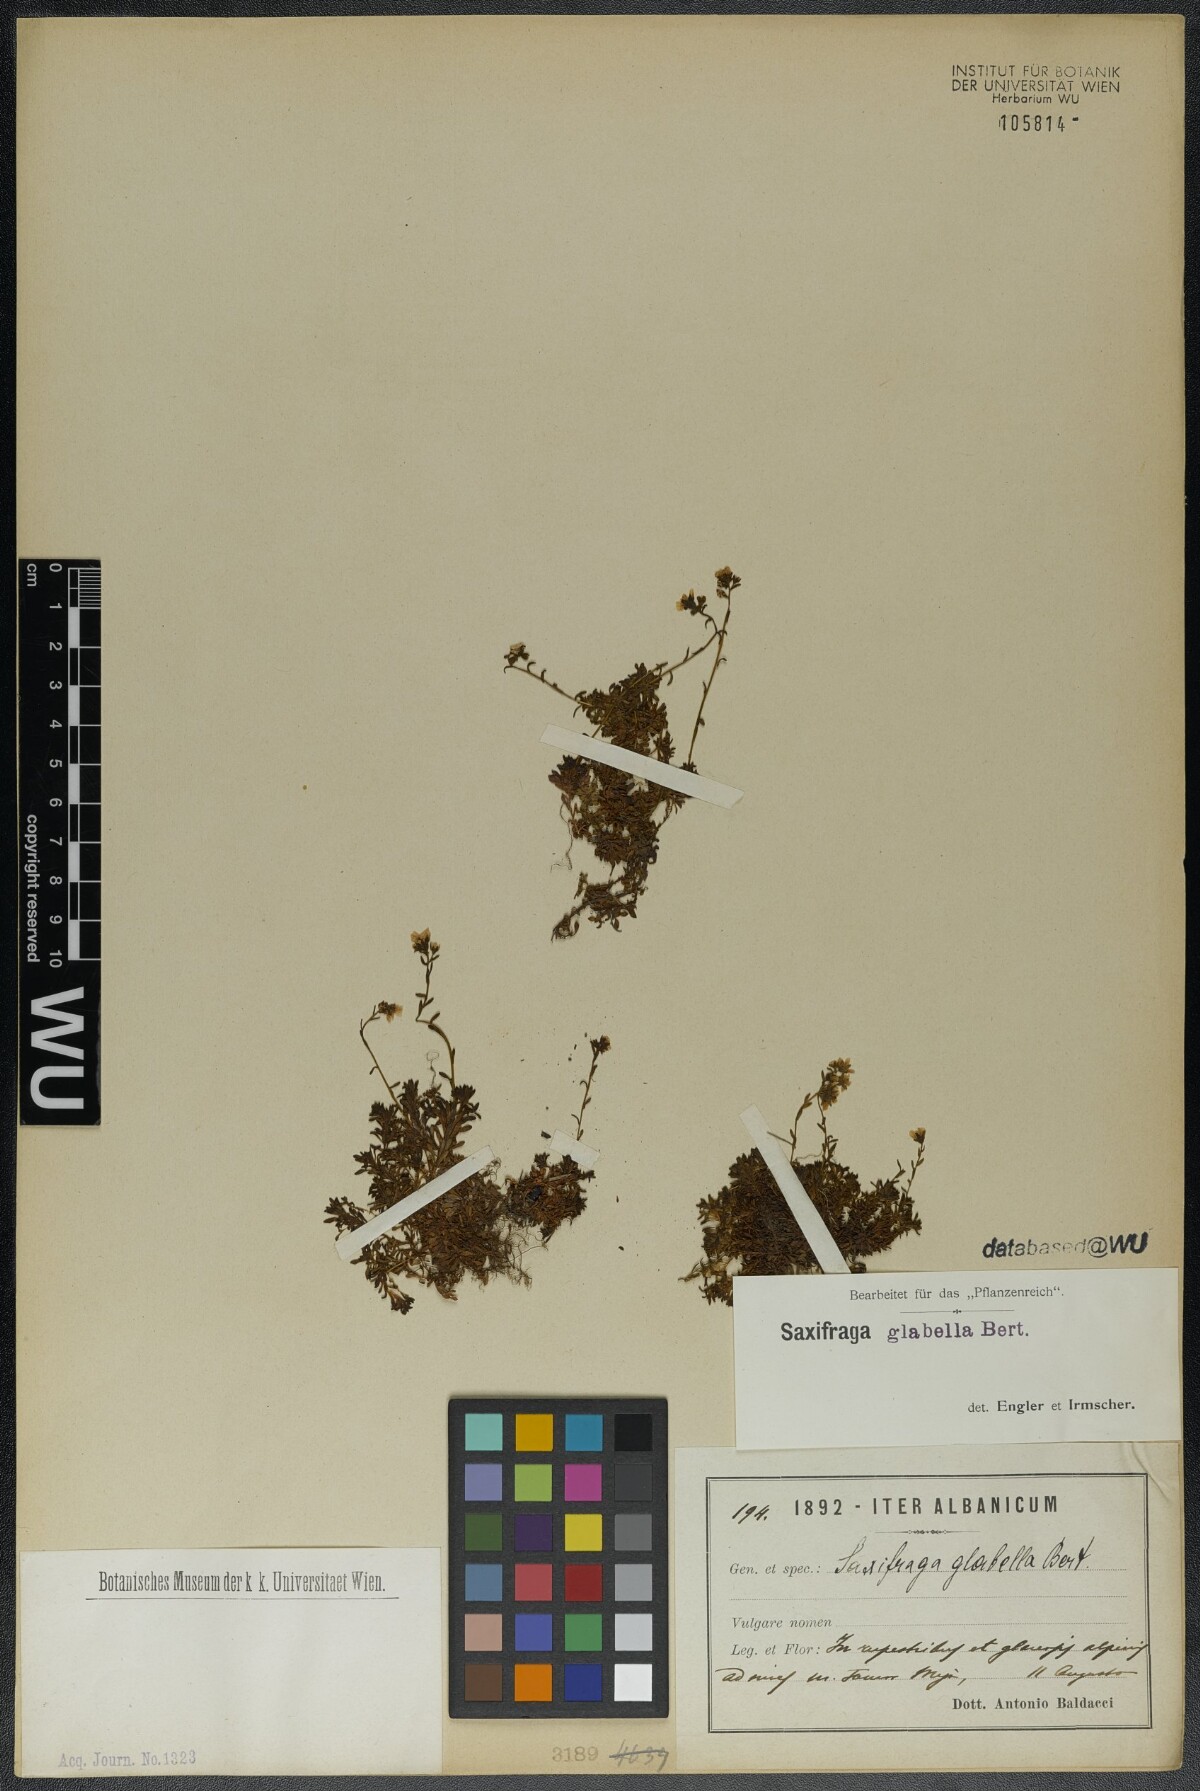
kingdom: Plantae
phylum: Tracheophyta
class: Magnoliopsida
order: Saxifragales
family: Saxifragaceae
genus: Saxifraga
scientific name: Saxifraga glabella
